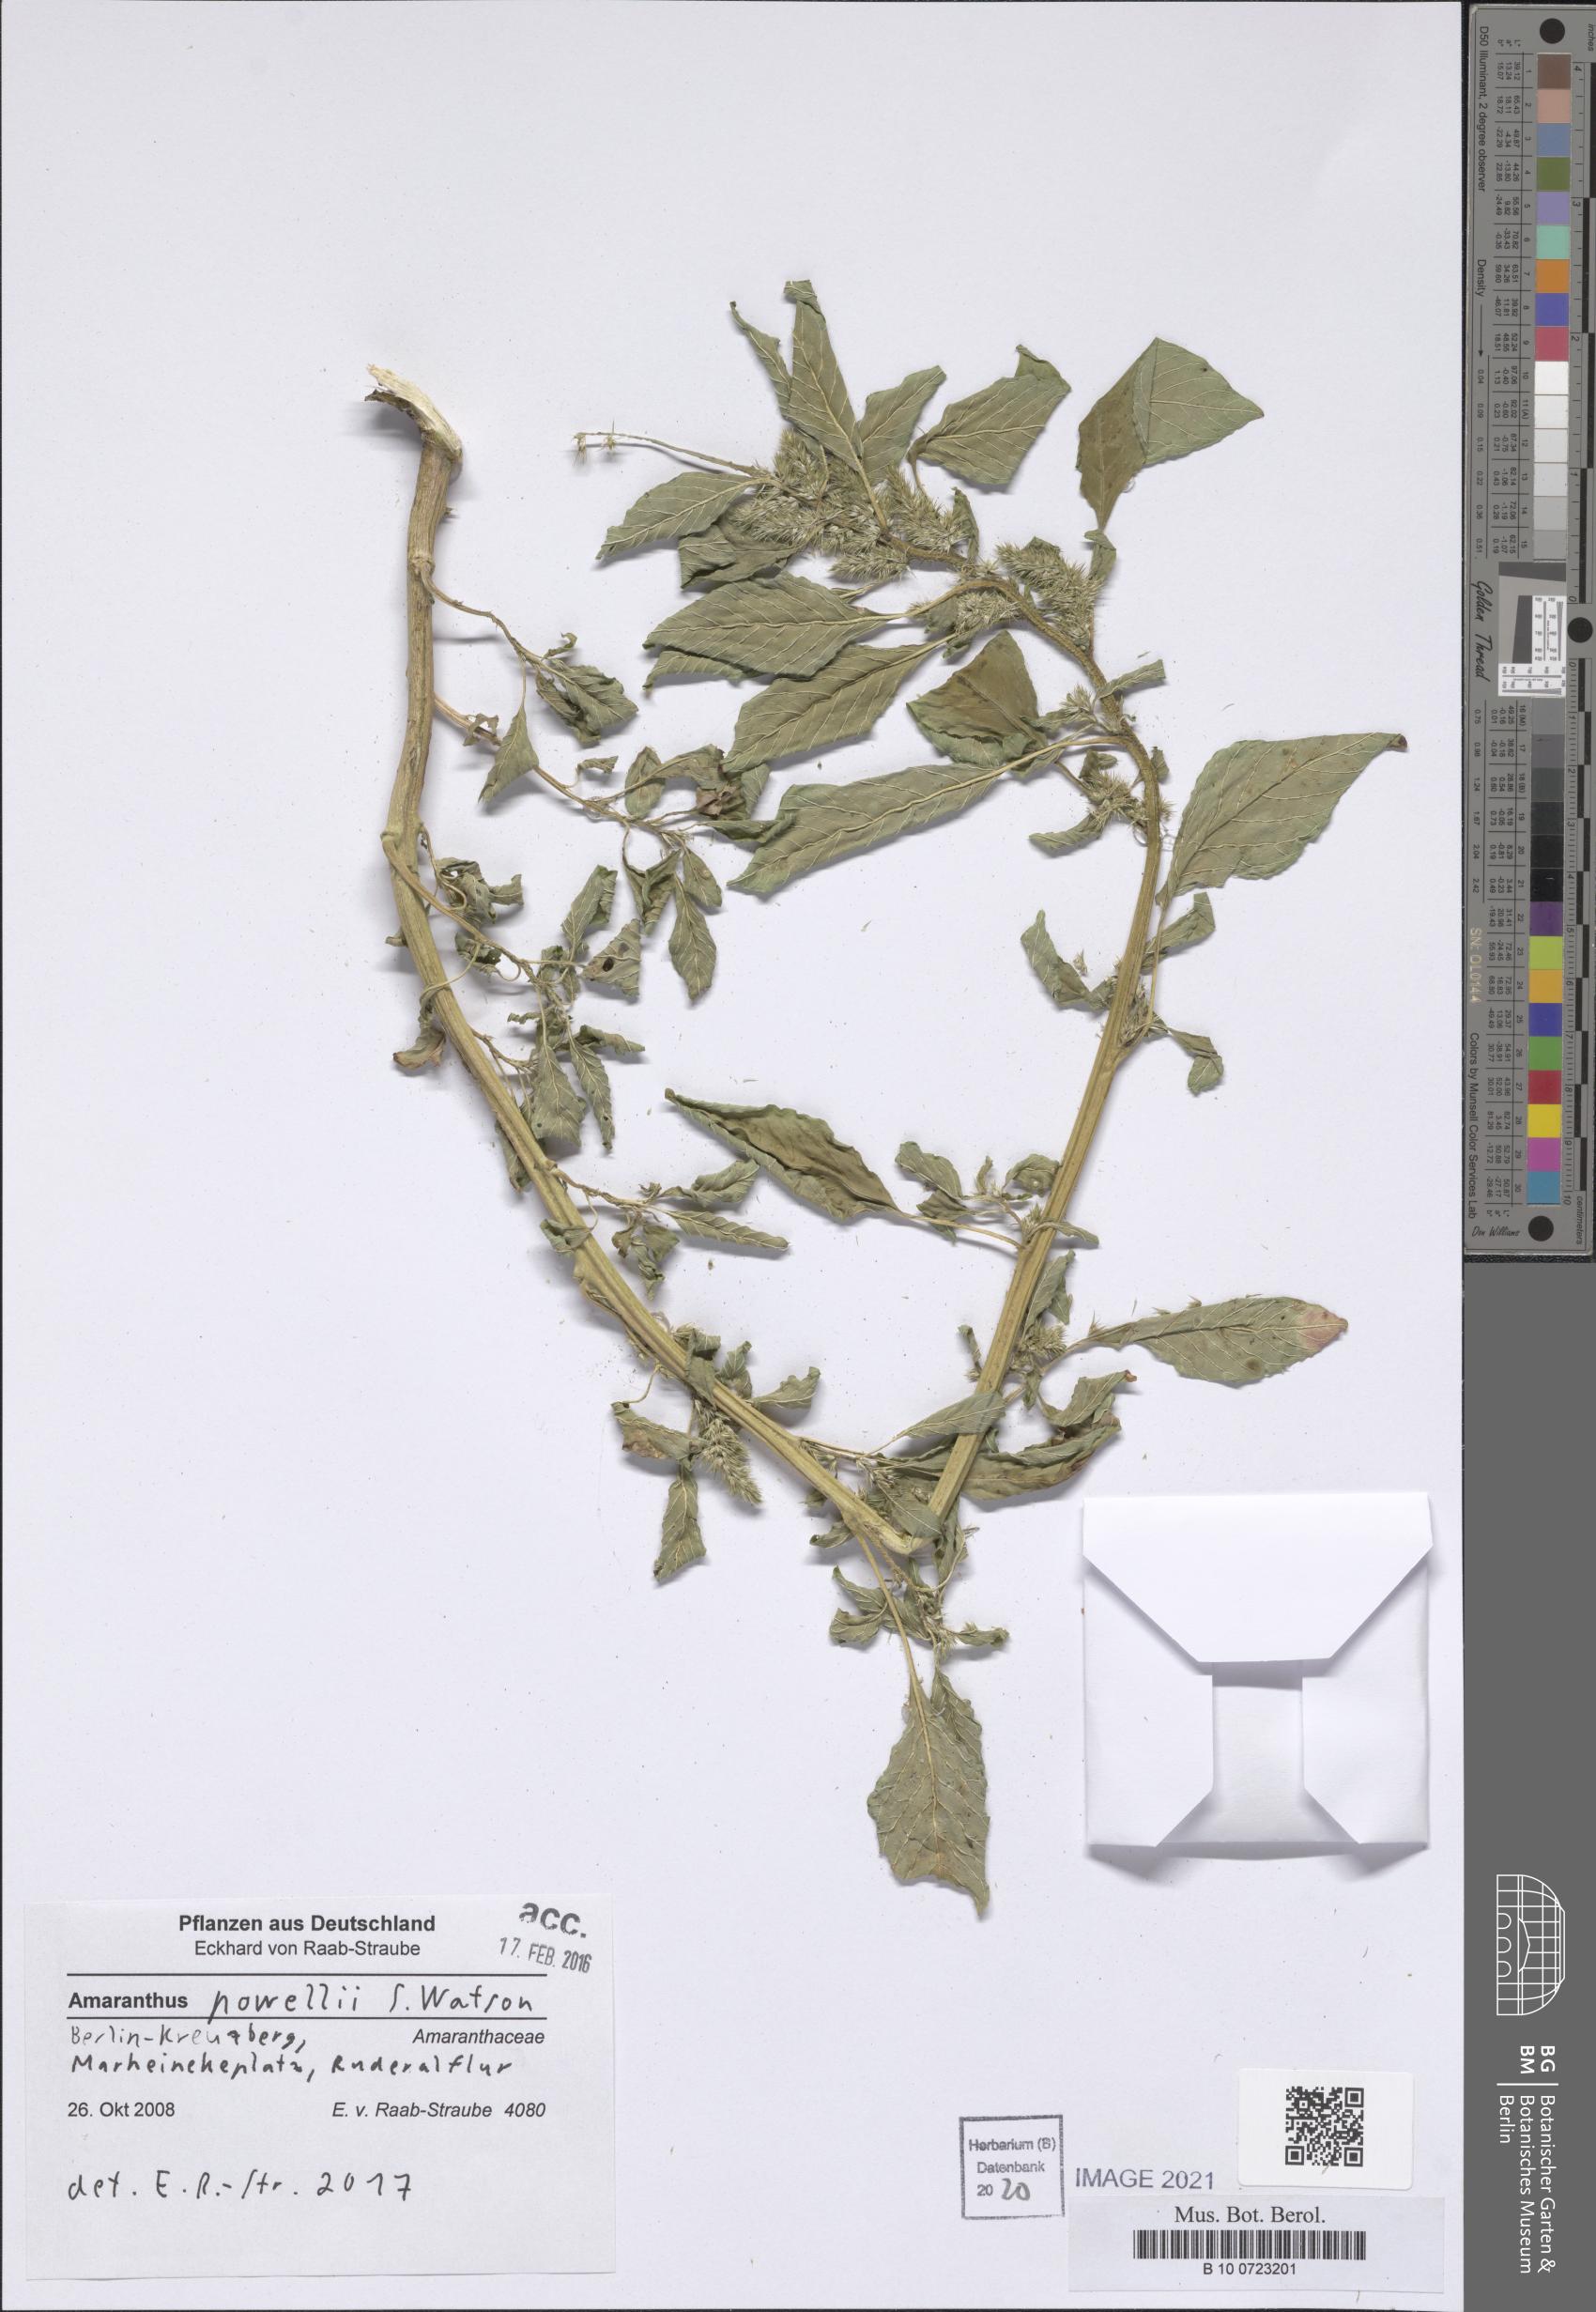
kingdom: Plantae
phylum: Tracheophyta
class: Magnoliopsida
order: Caryophyllales
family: Amaranthaceae
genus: Amaranthus
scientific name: Amaranthus powellii
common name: Powell's amaranth
